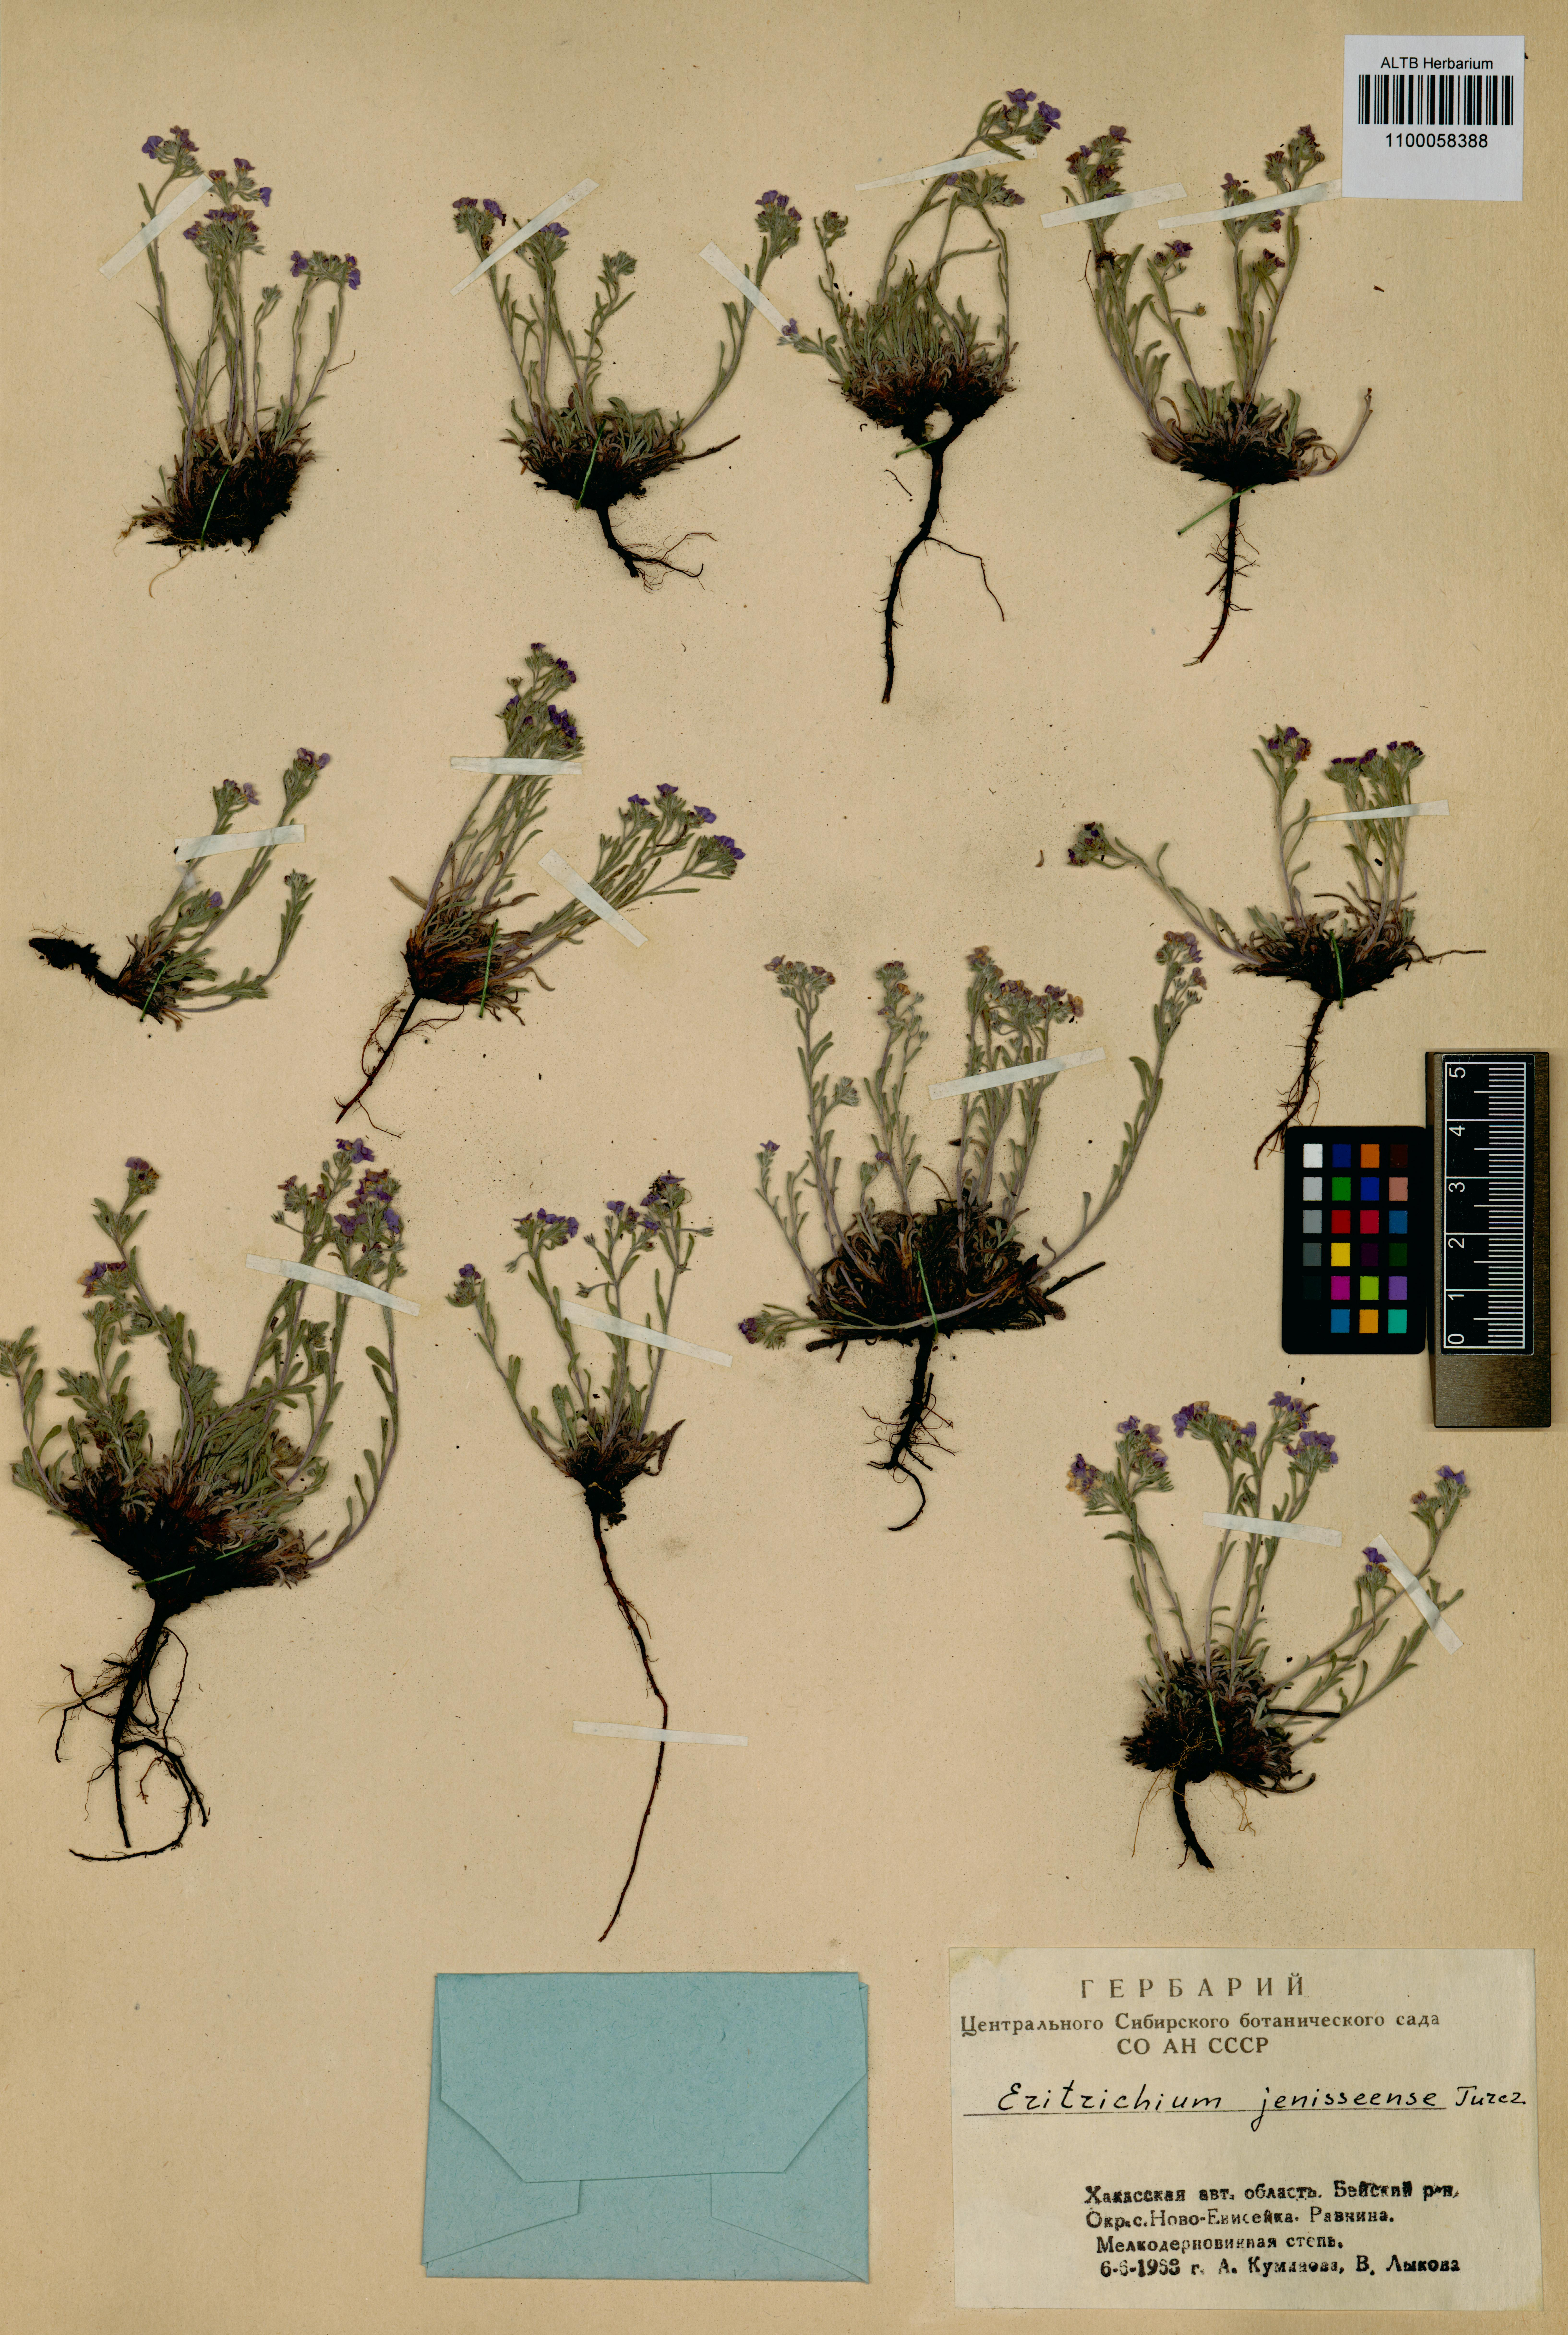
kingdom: Plantae
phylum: Tracheophyta
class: Magnoliopsida
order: Boraginales
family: Boraginaceae
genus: Eritrichium
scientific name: Eritrichium jenisseense
